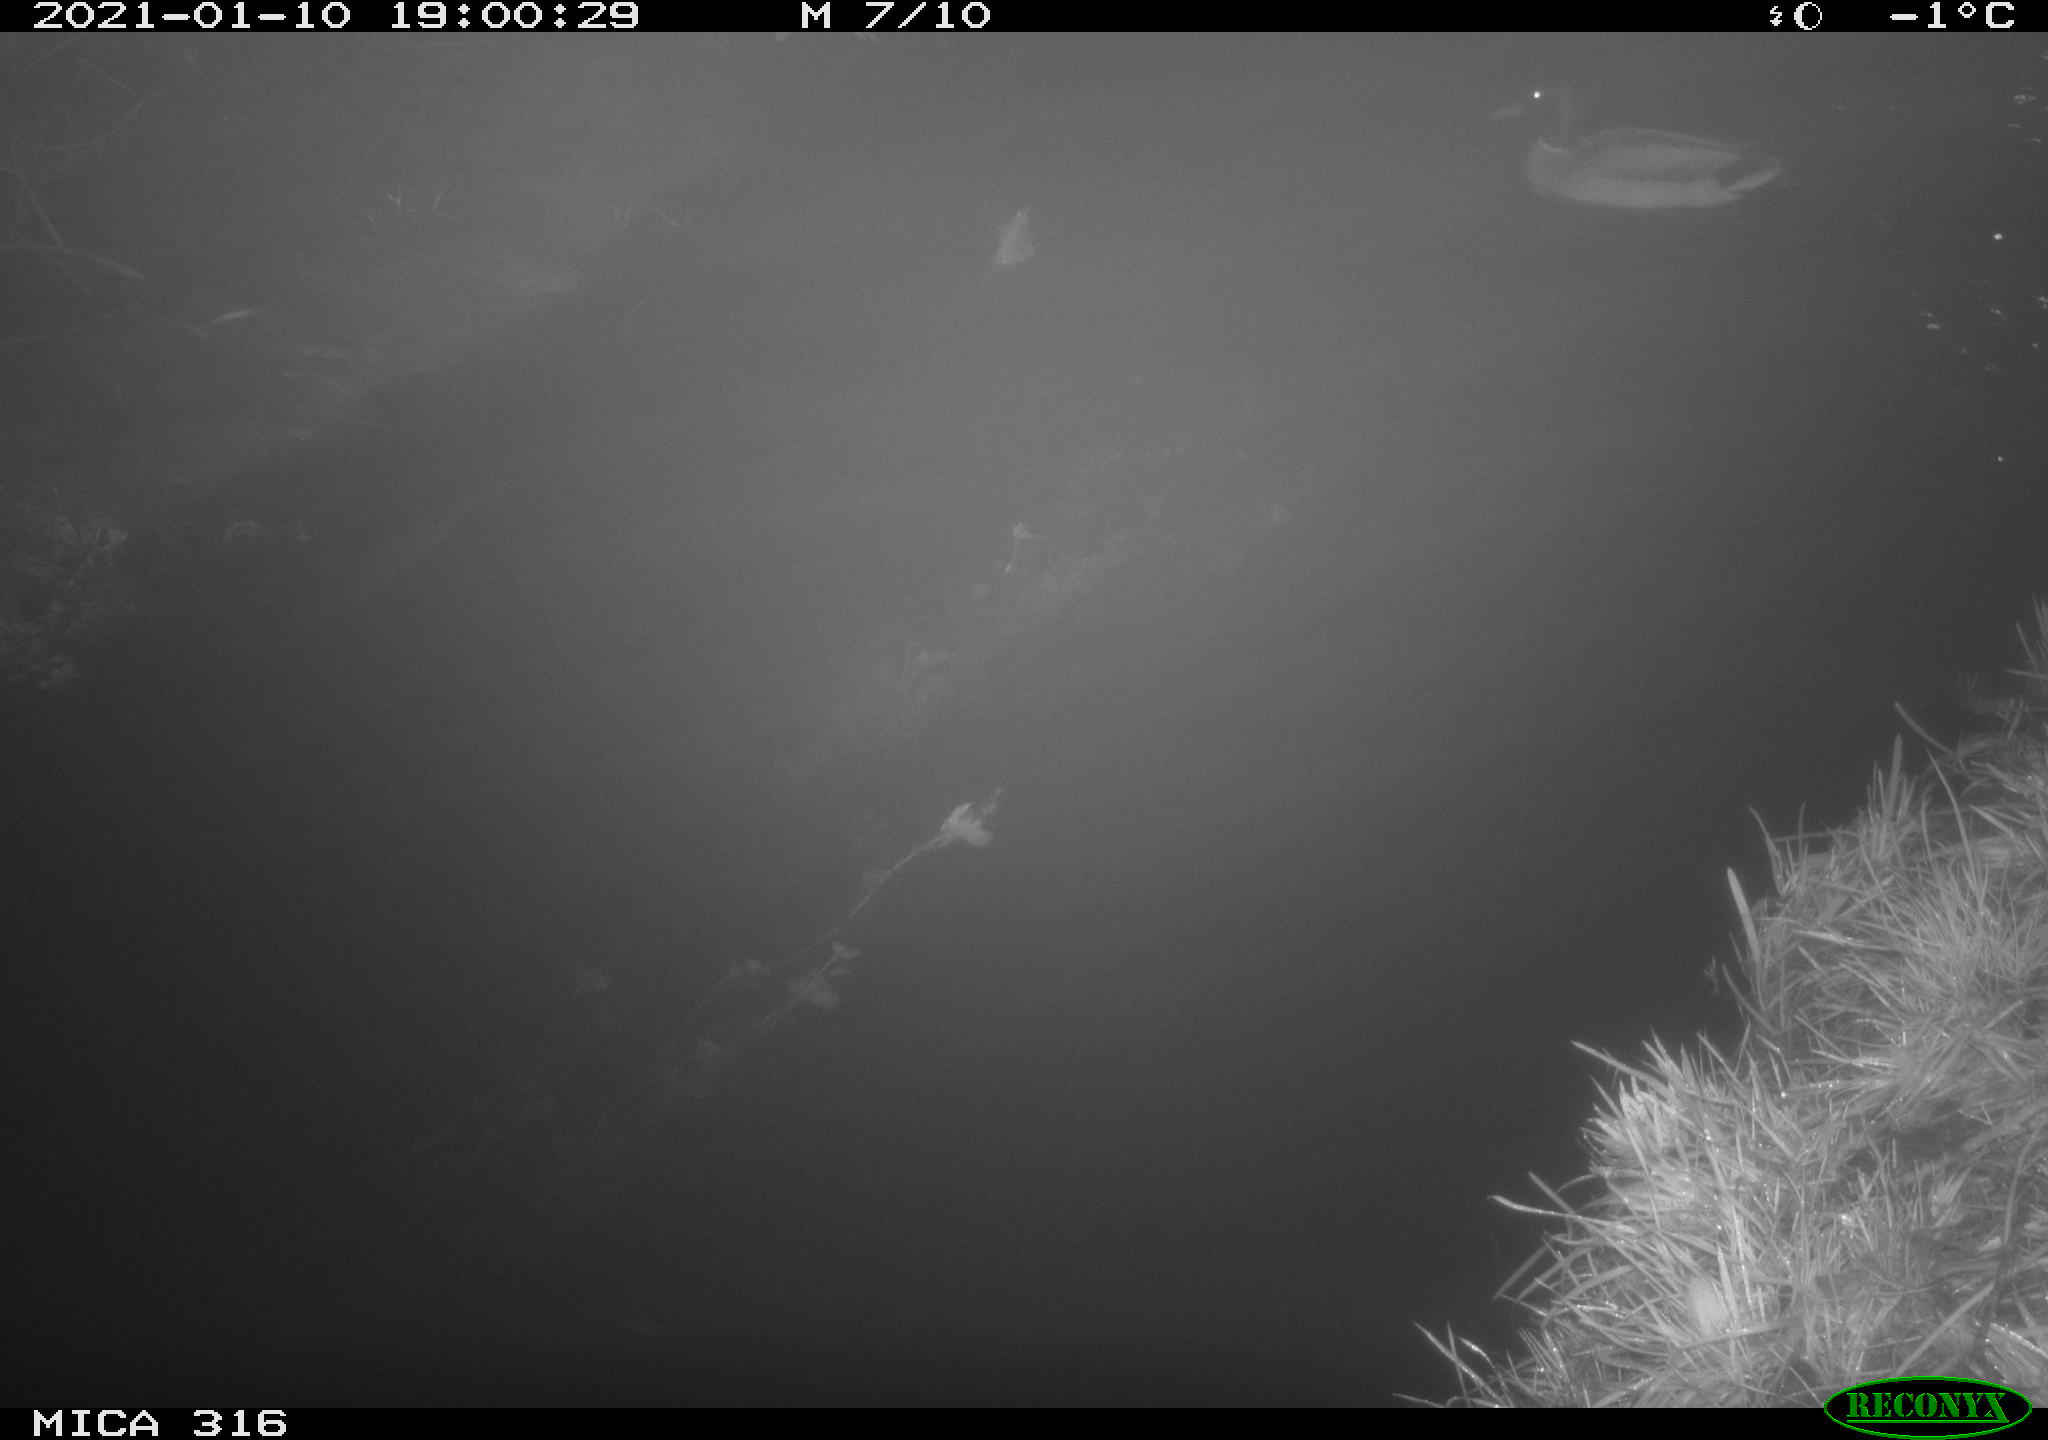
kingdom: Animalia
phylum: Chordata
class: Aves
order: Anseriformes
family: Anatidae
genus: Anas
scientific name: Anas platyrhynchos
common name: Mallard
